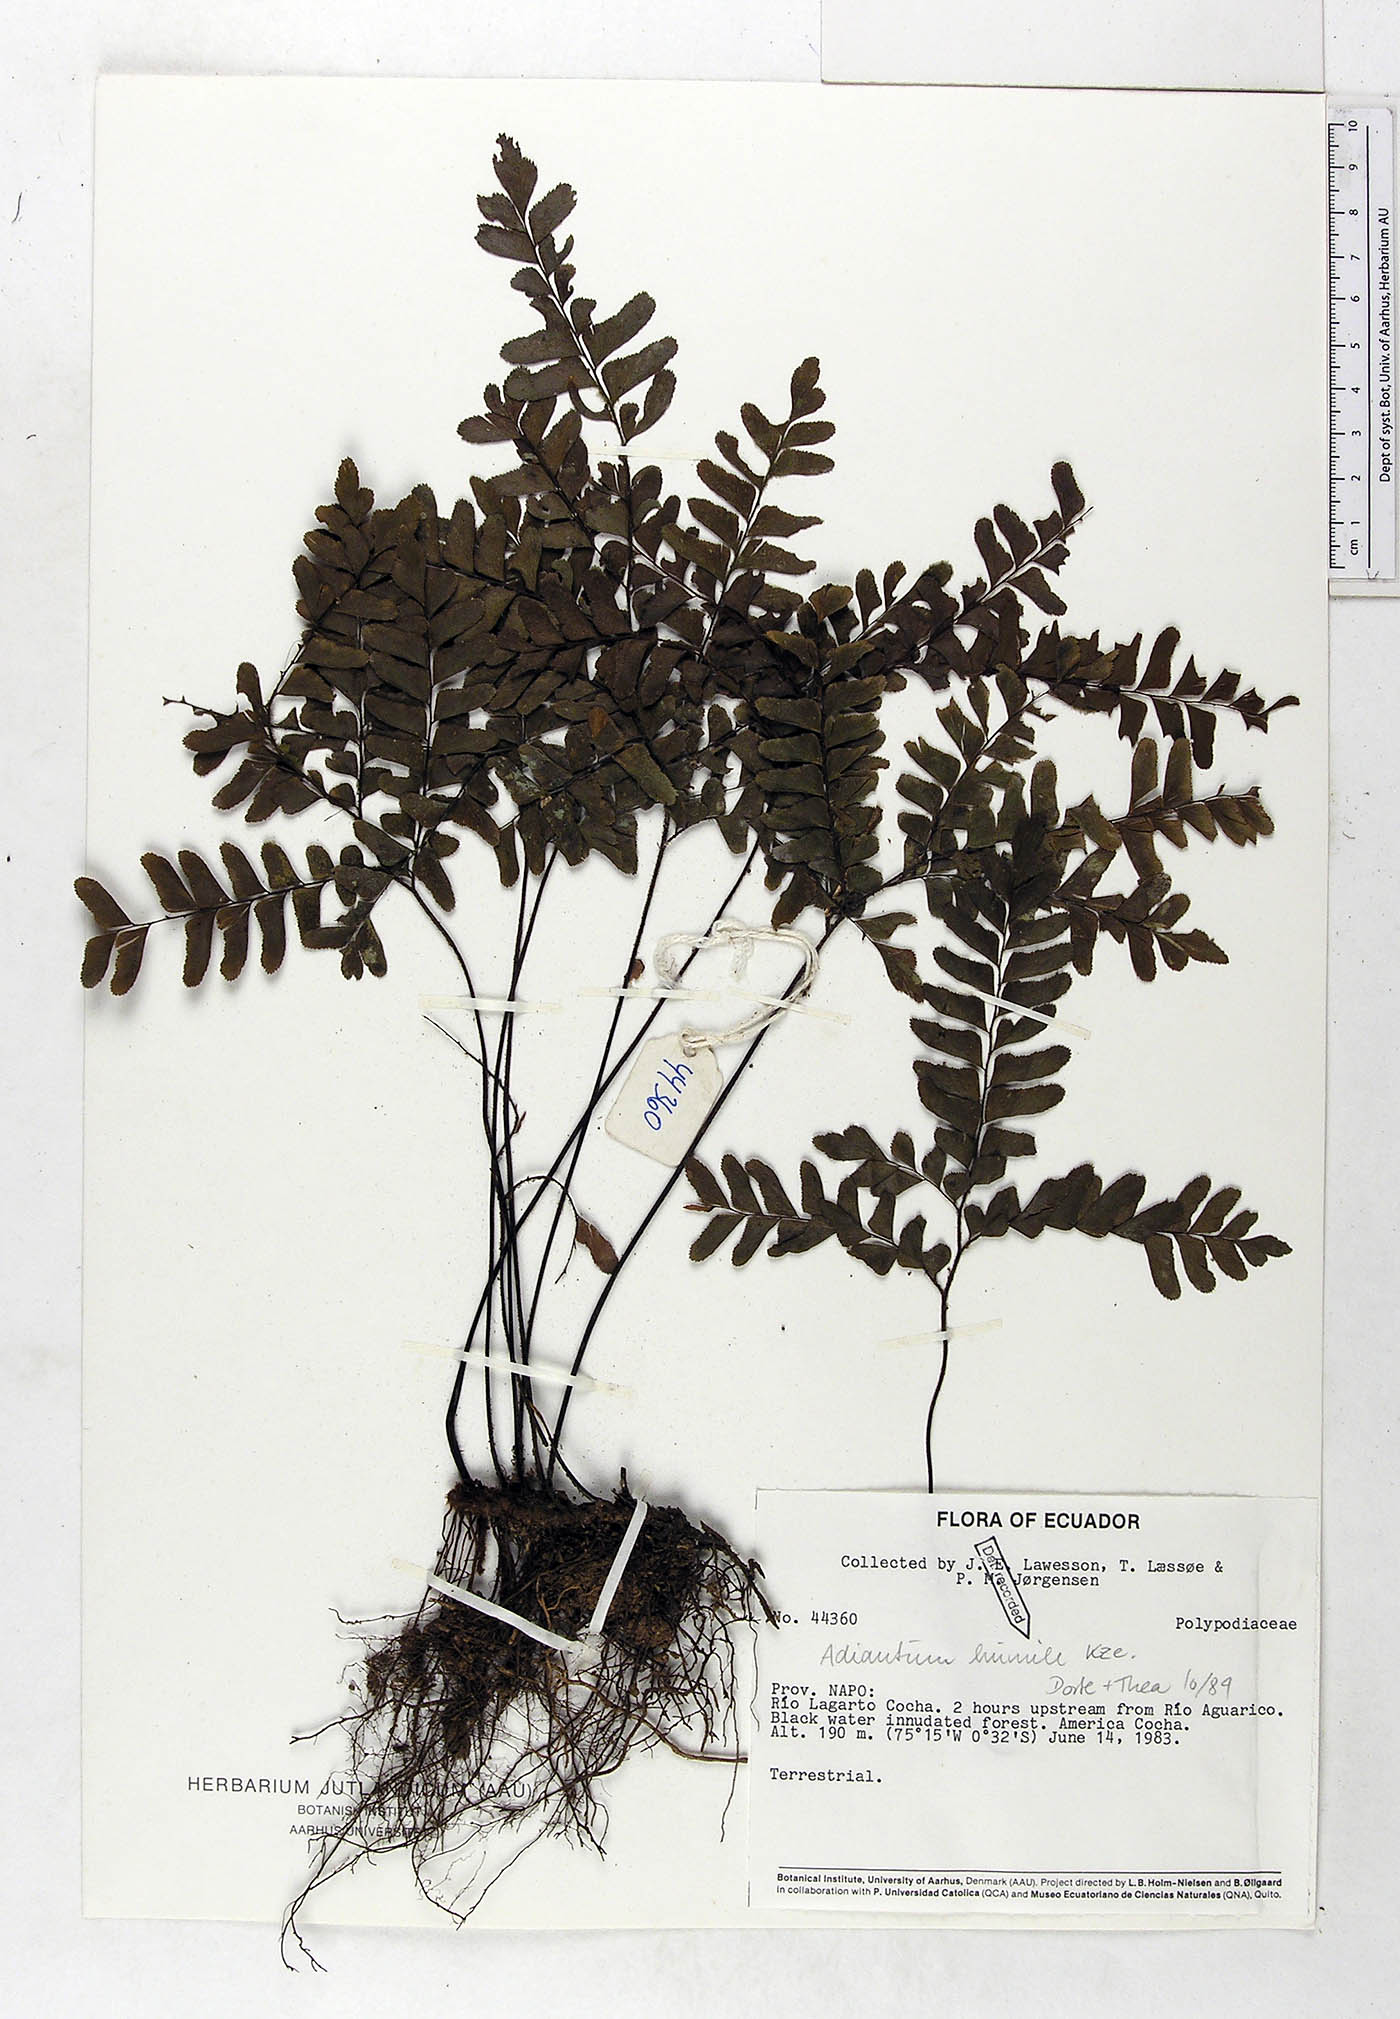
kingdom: Plantae
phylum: Tracheophyta
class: Polypodiopsida
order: Polypodiales
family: Pteridaceae
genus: Adiantum
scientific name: Adiantum humile
